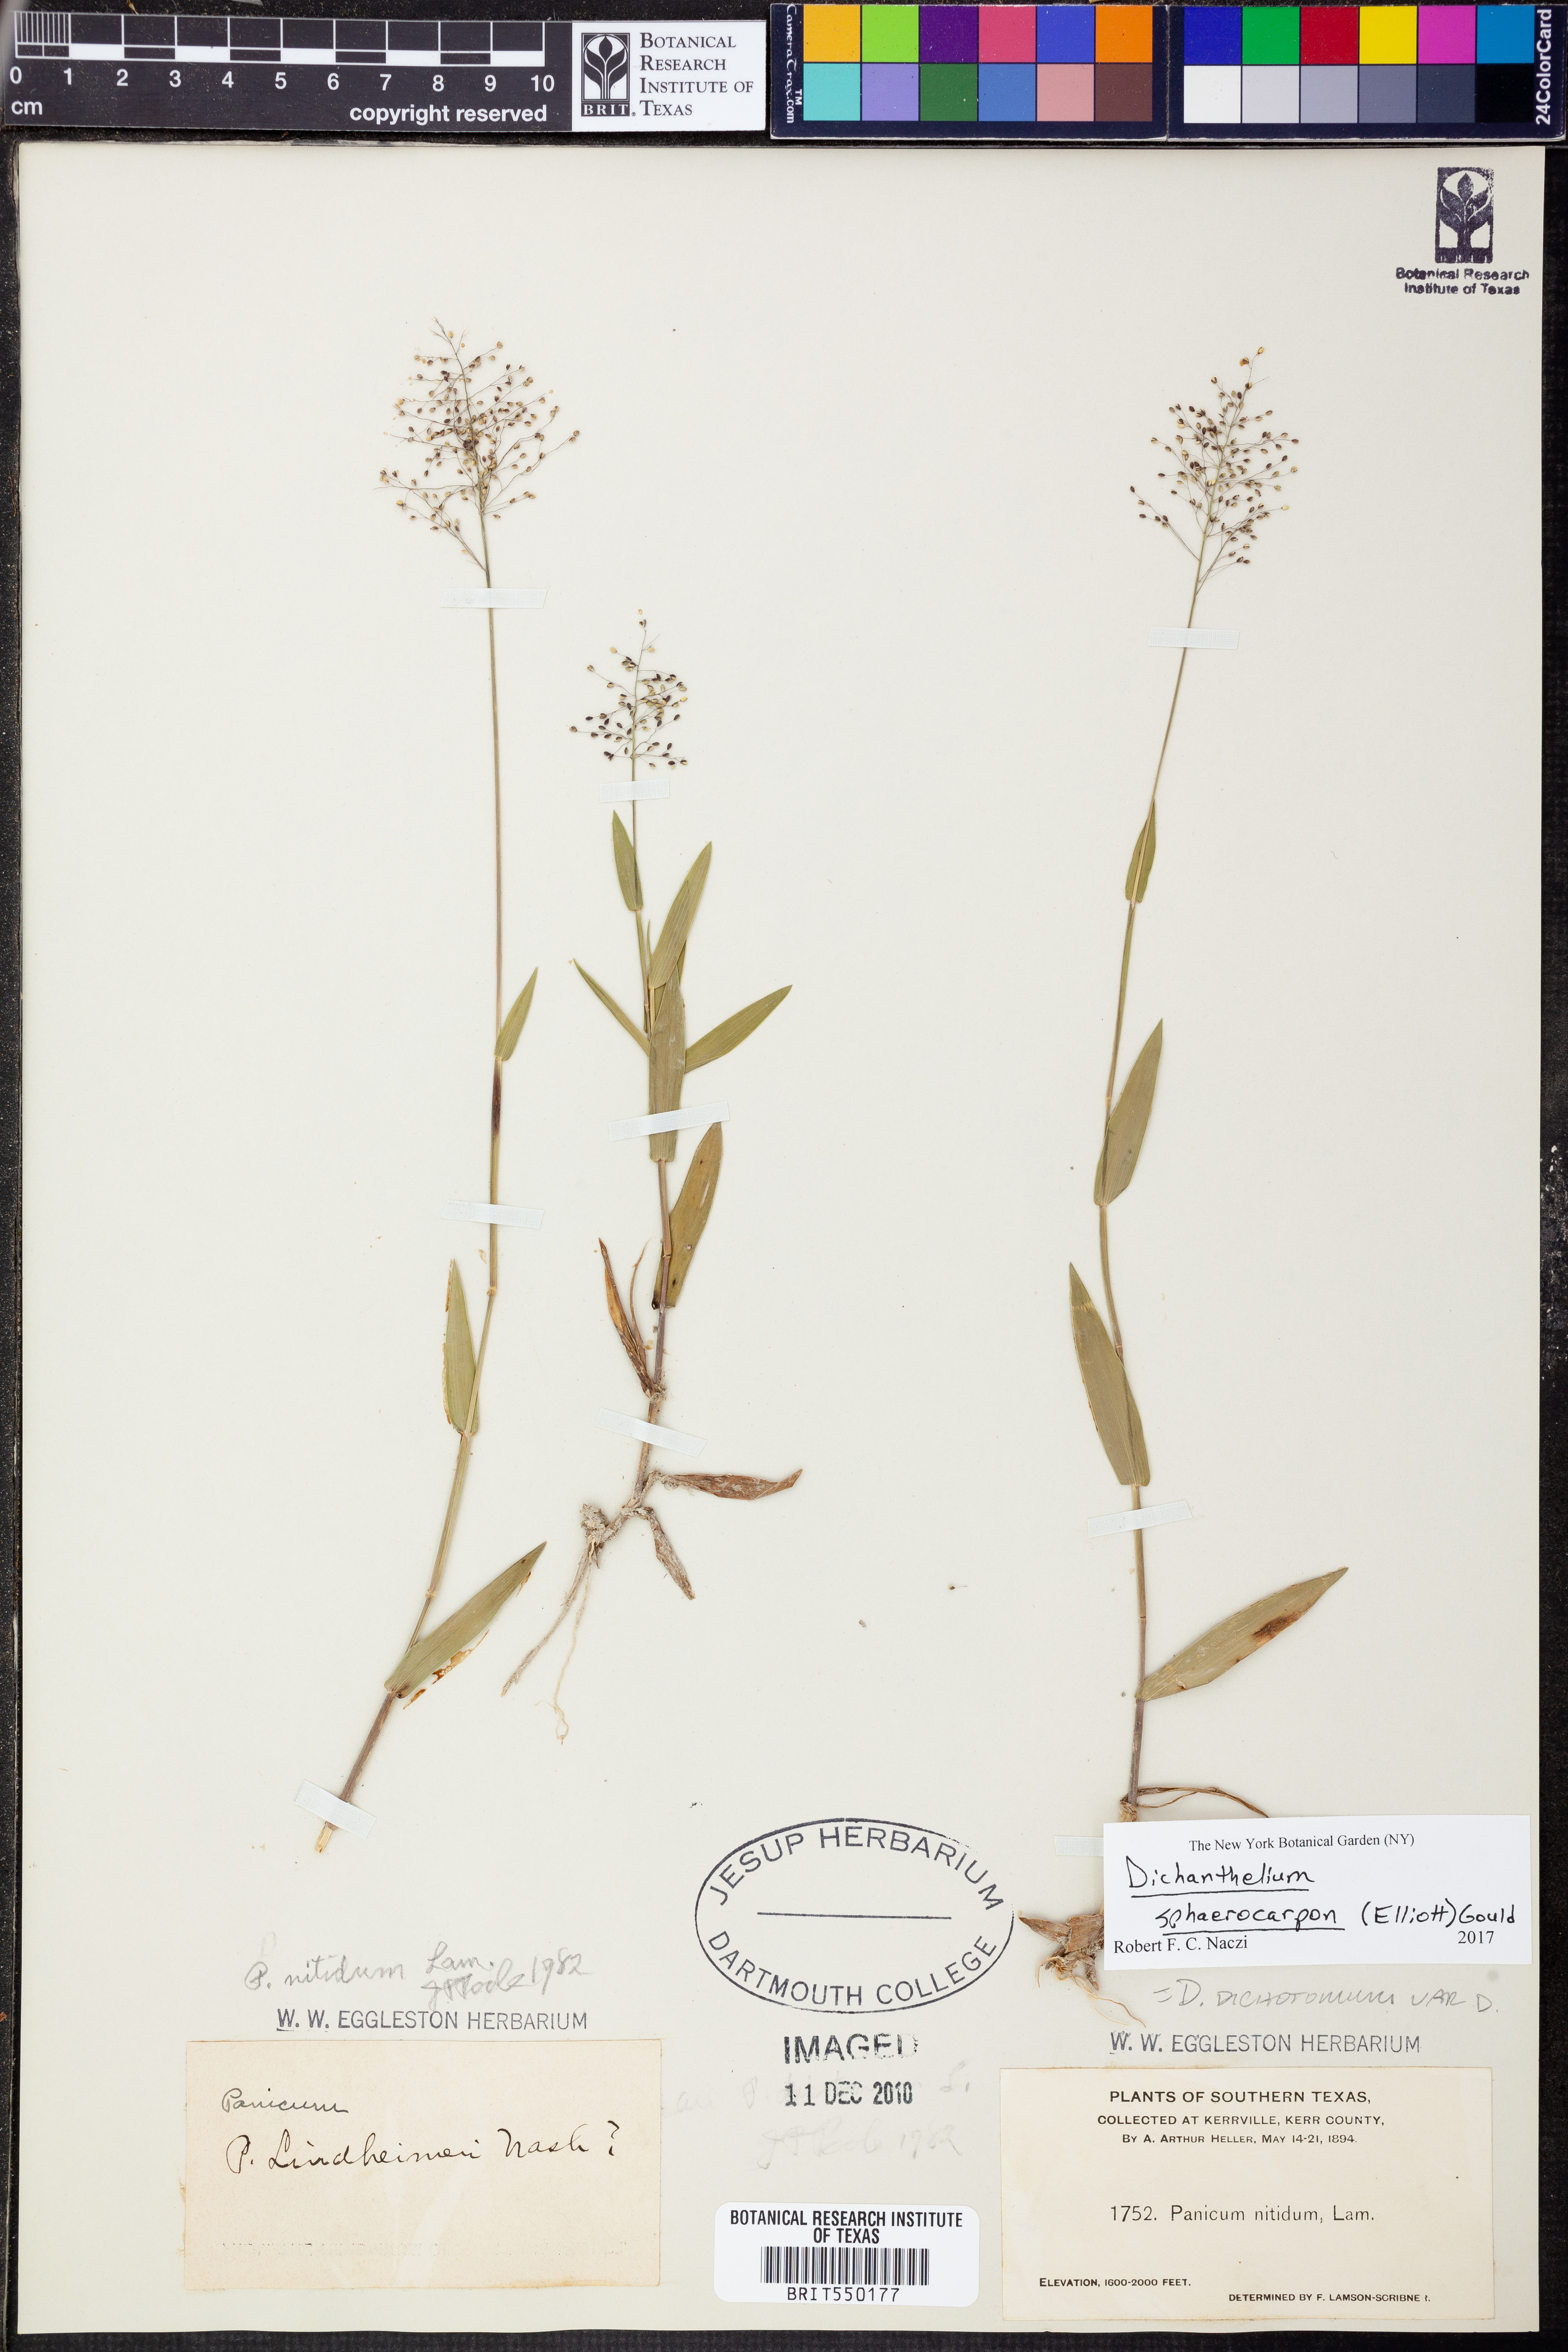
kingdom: Plantae
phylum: Tracheophyta
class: Liliopsida
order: Poales
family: Poaceae
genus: Dichanthelium
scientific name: Dichanthelium sphaerocarpon
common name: Round-fruited panicgrass
